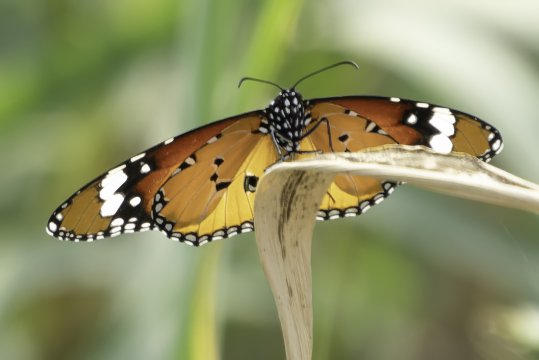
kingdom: Animalia
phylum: Arthropoda
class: Insecta
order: Lepidoptera
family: Nymphalidae
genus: Danaus
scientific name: Danaus genutia
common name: Common Tiger
